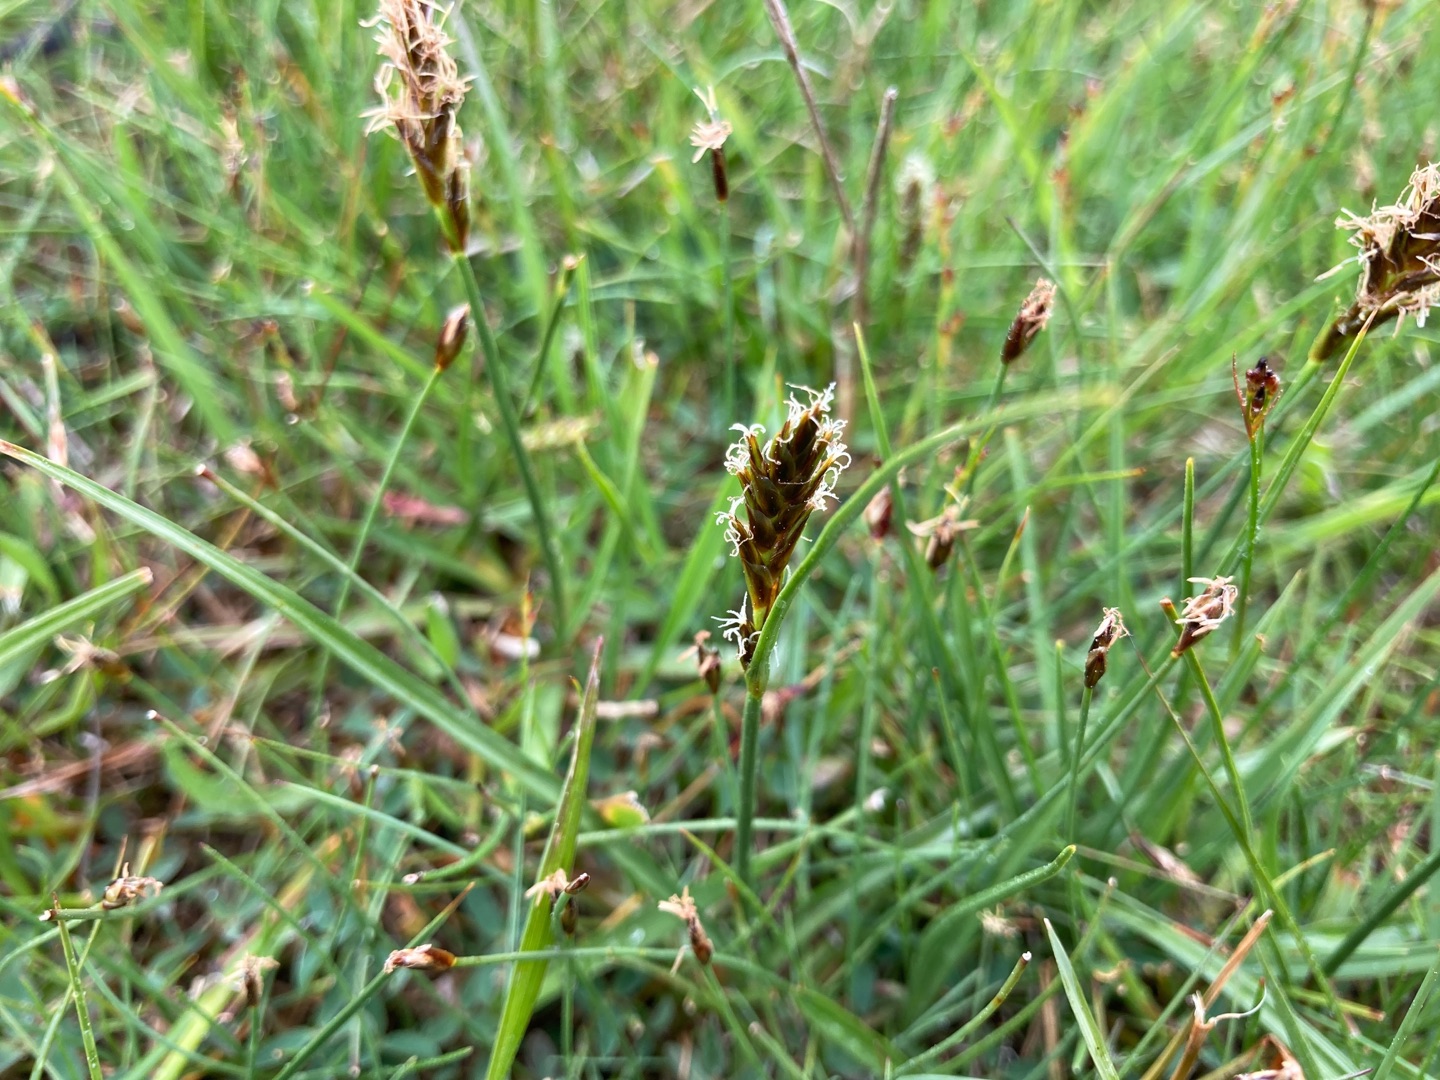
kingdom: Plantae
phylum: Tracheophyta
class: Liliopsida
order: Poales
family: Cyperaceae
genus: Blysmus
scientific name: Blysmus compressus
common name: Fladtrykt kogleaks
